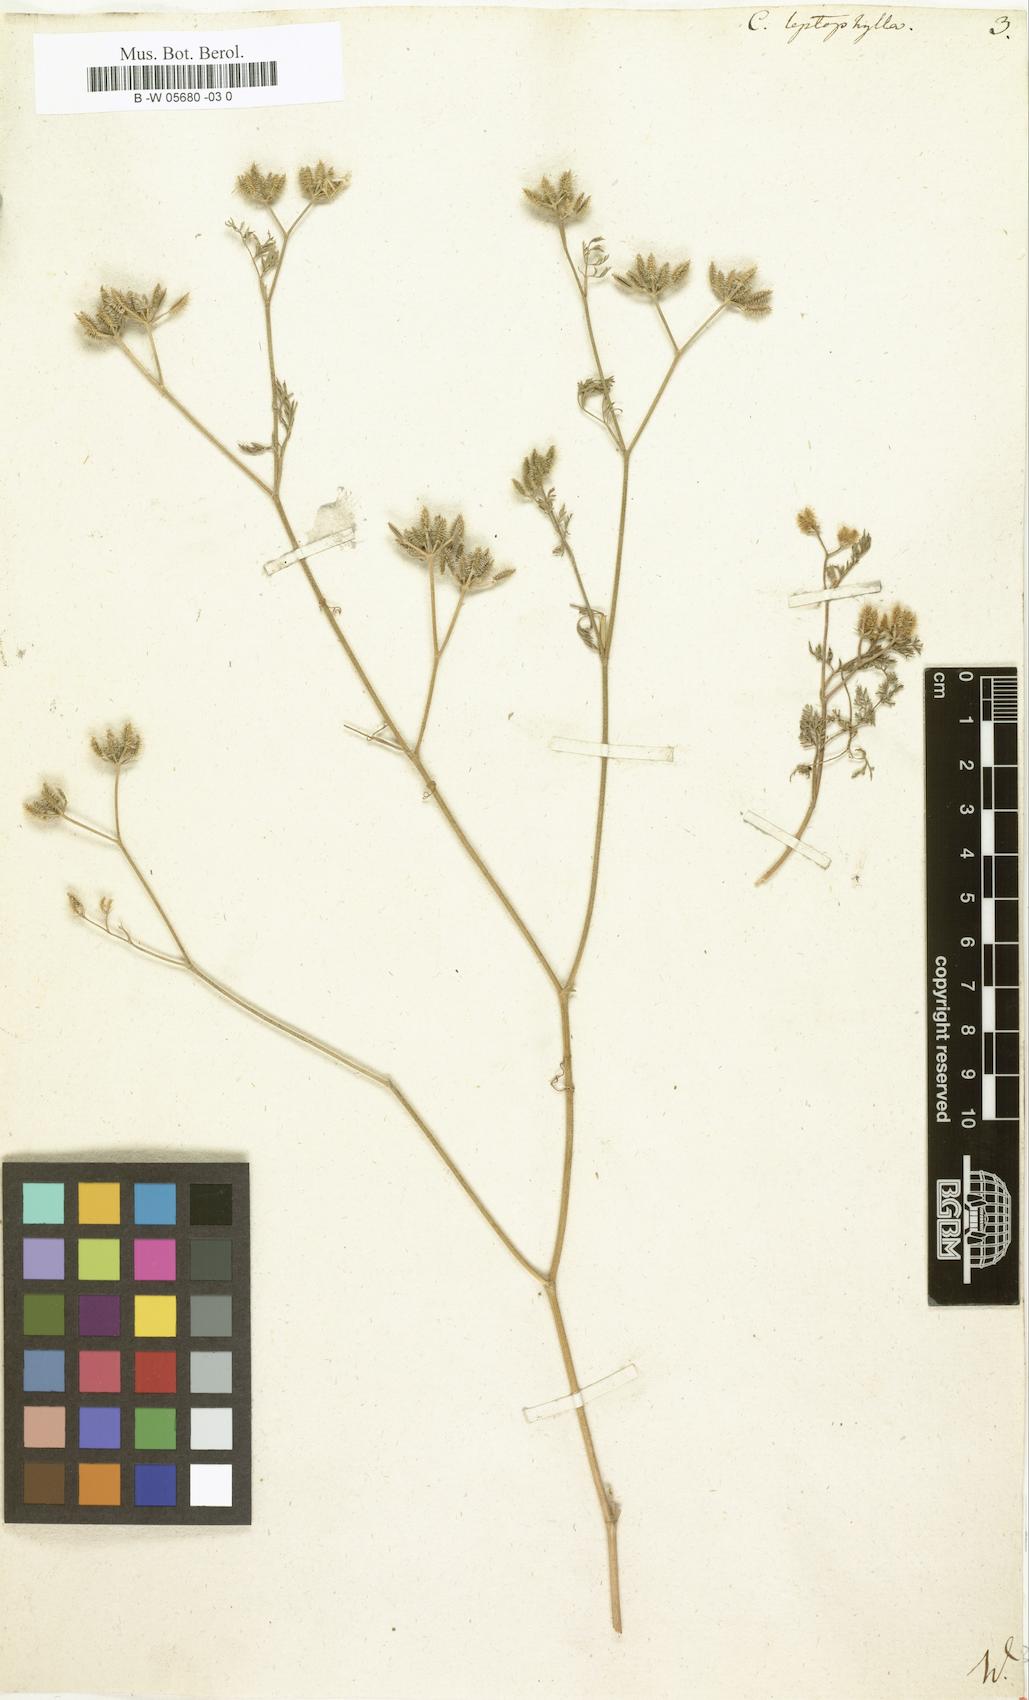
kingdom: Plantae
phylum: Tracheophyta
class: Magnoliopsida
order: Apiales
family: Apiaceae
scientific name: Apiaceae
